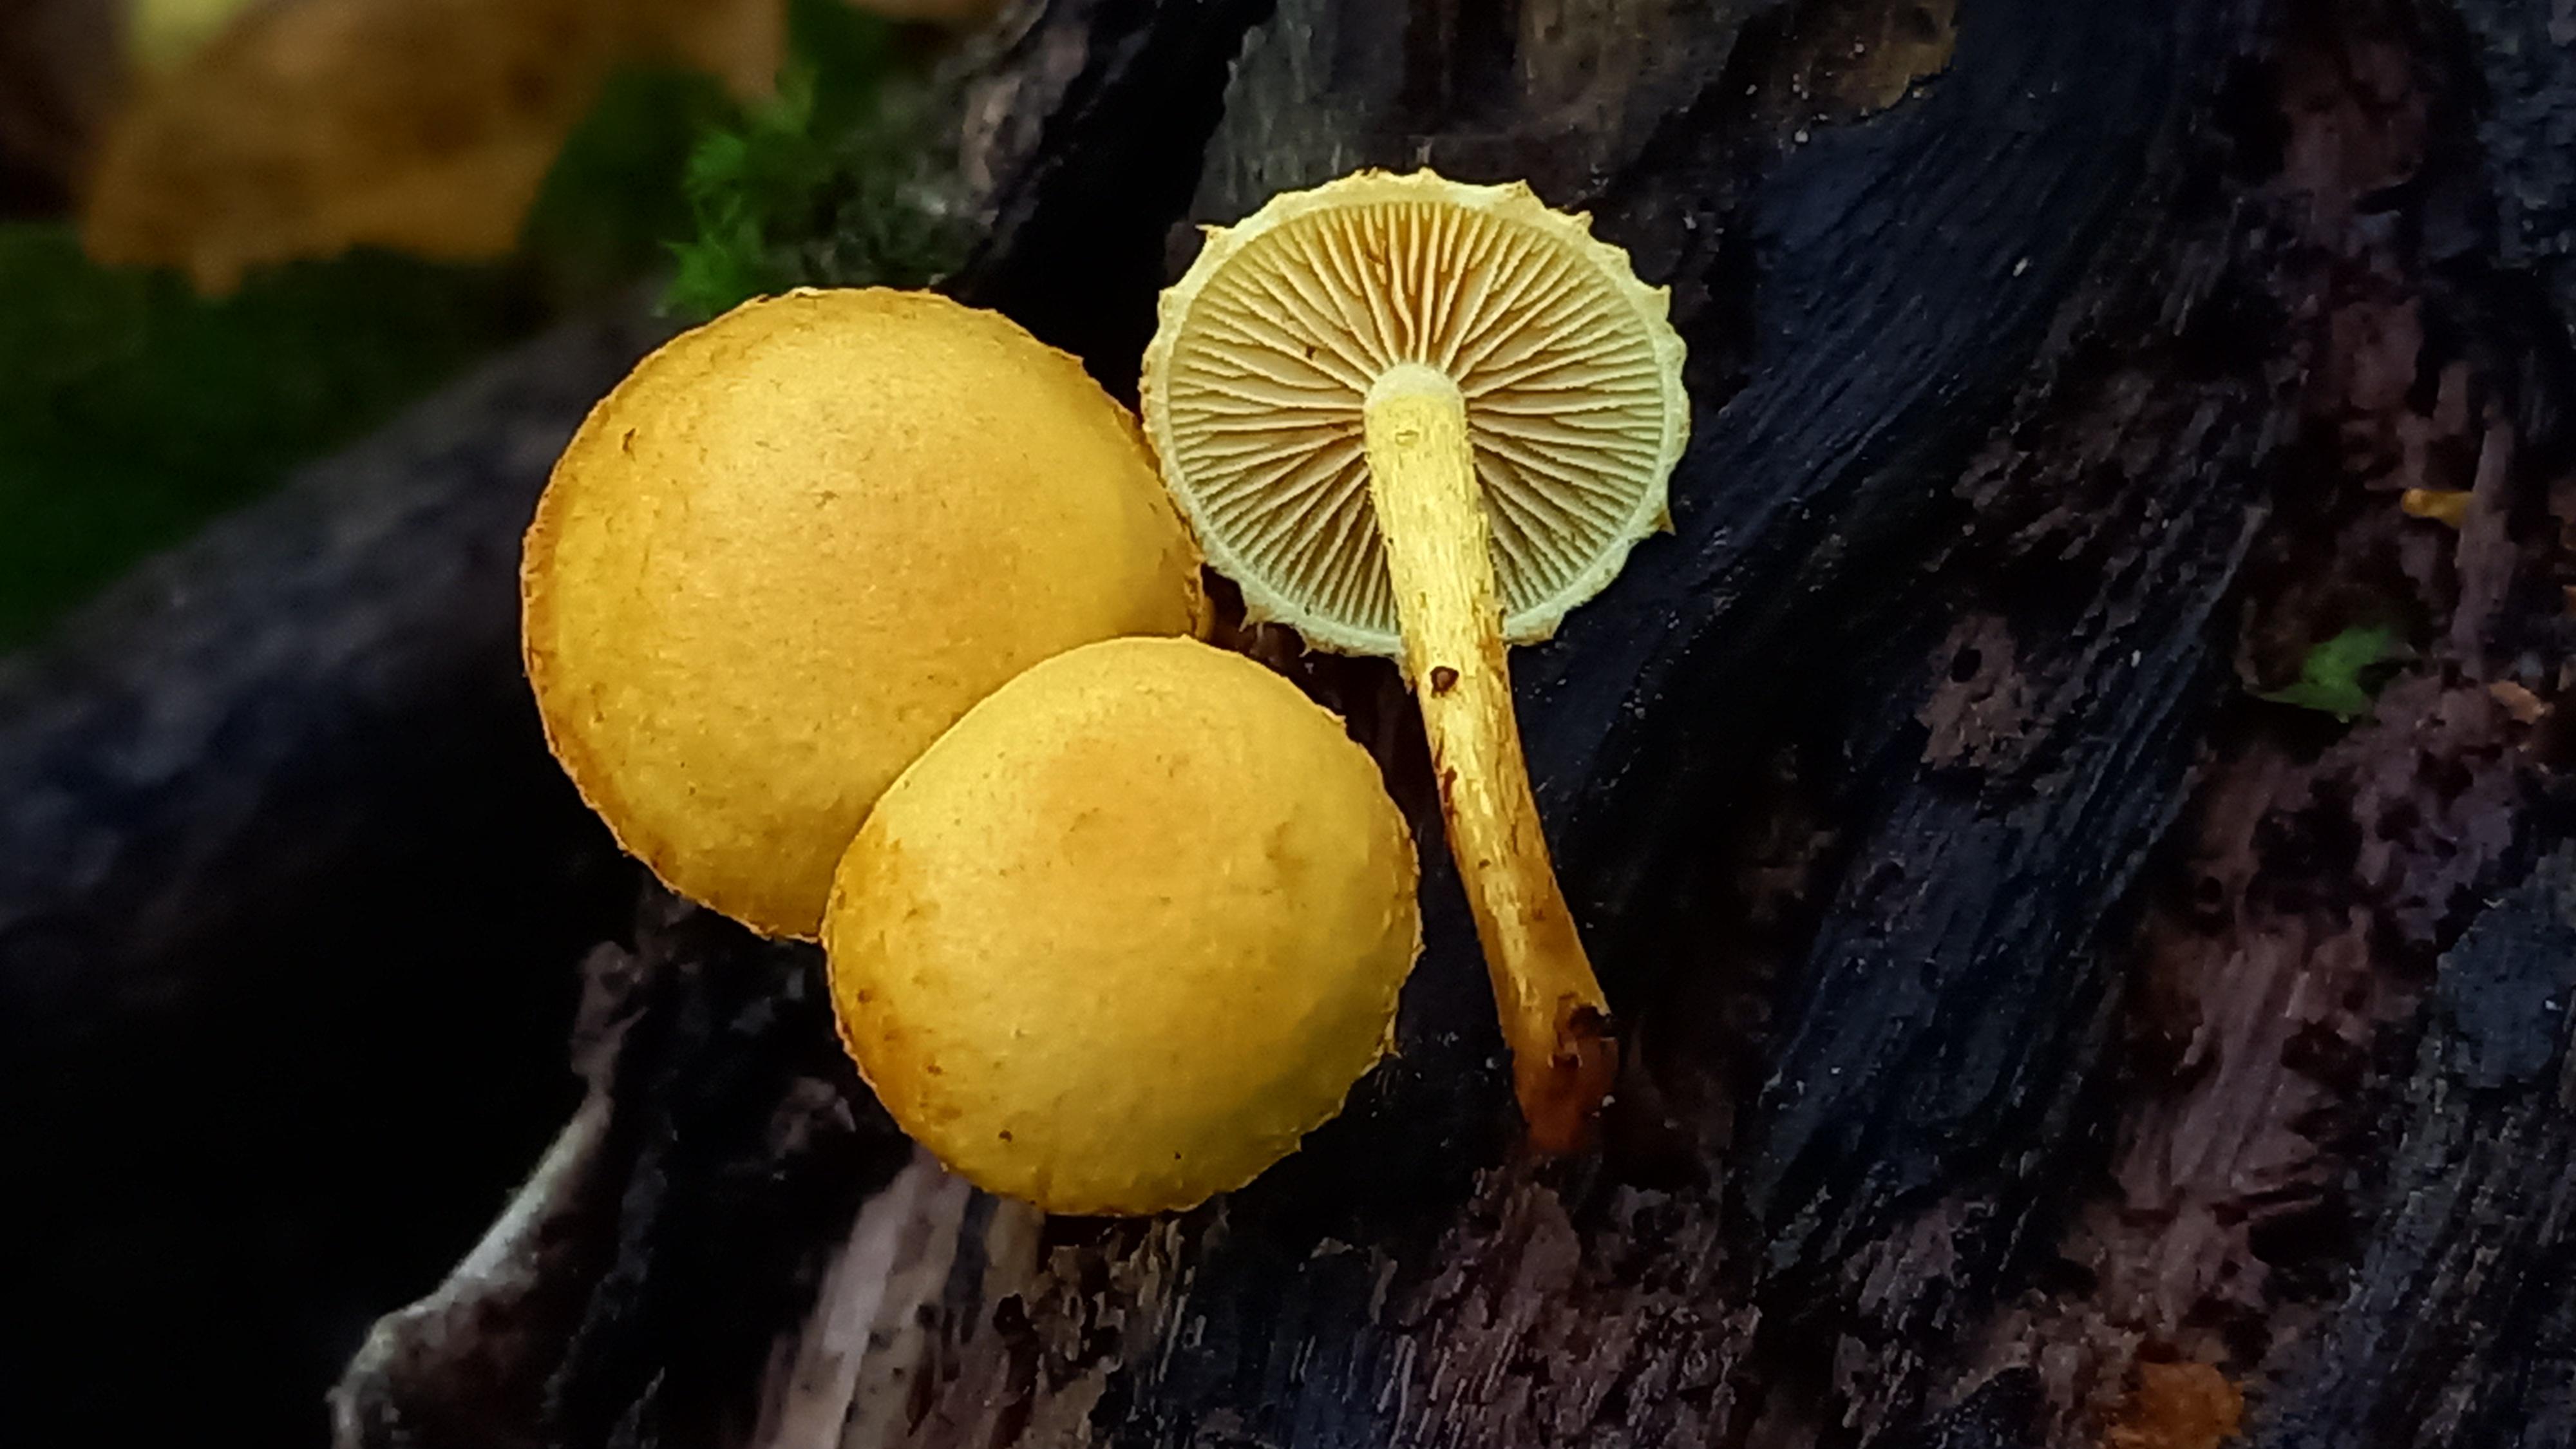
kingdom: Fungi
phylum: Basidiomycota
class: Agaricomycetes
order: Agaricales
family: Strophariaceae
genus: Pholiota
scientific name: Pholiota tuberculosa
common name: finskællet skælhat
